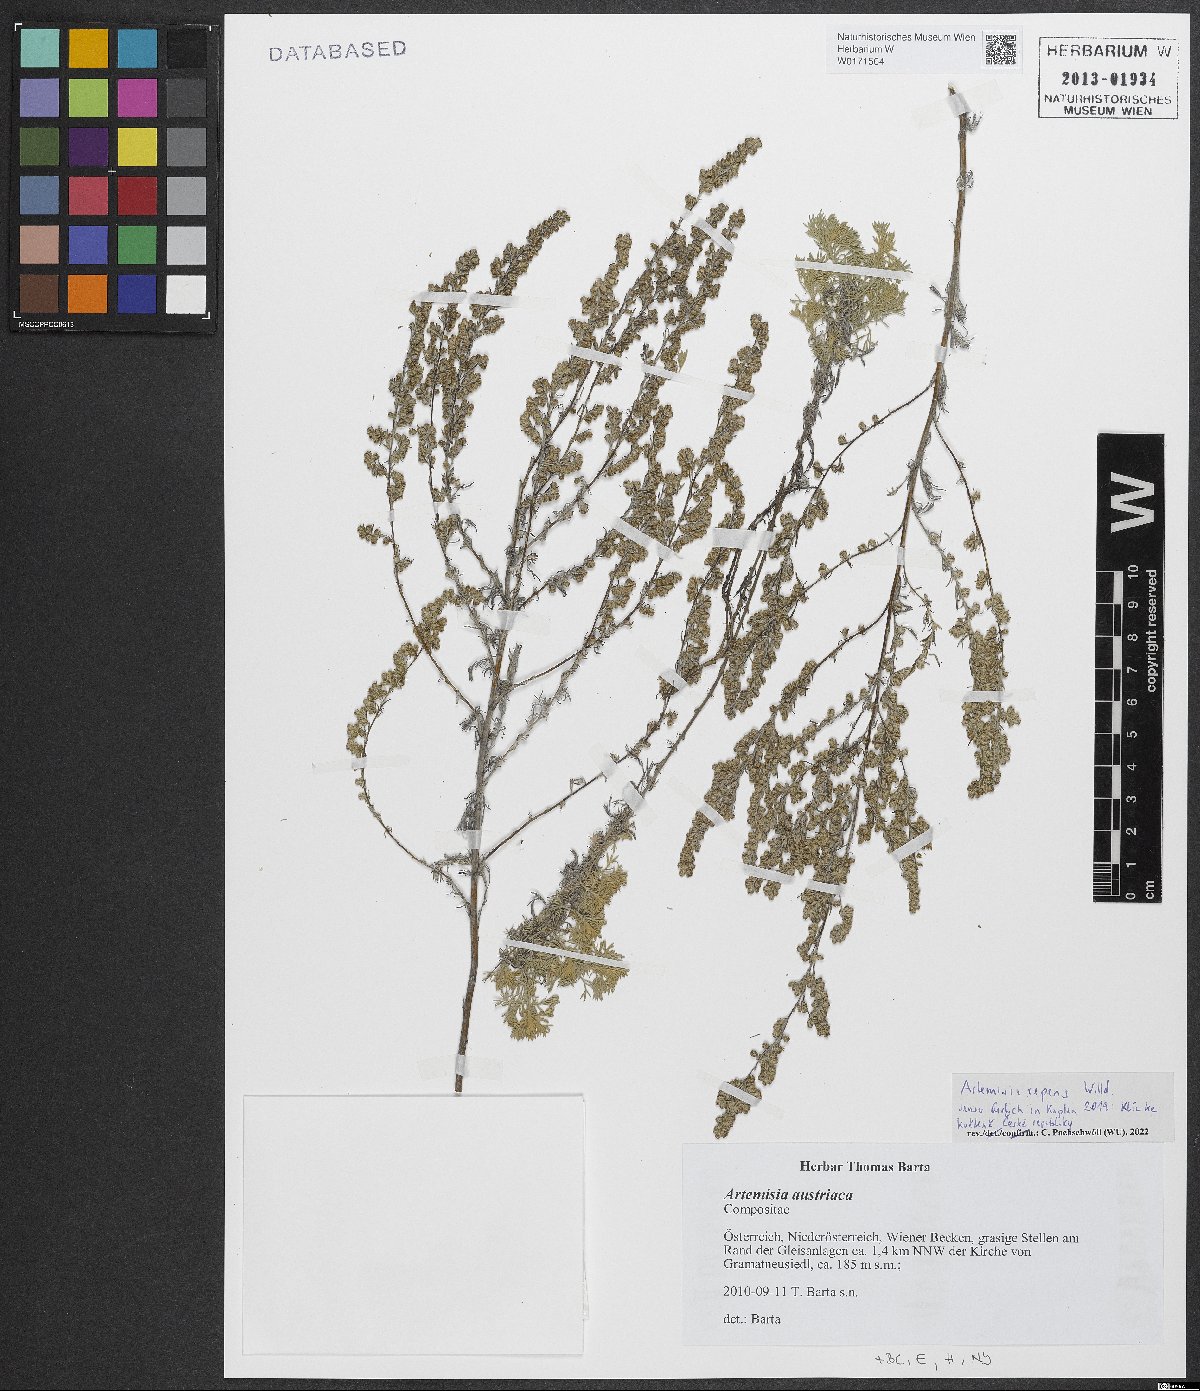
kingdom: Plantae
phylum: Tracheophyta
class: Magnoliopsida
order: Asterales
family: Asteraceae
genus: Artemisia
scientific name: Artemisia repens
